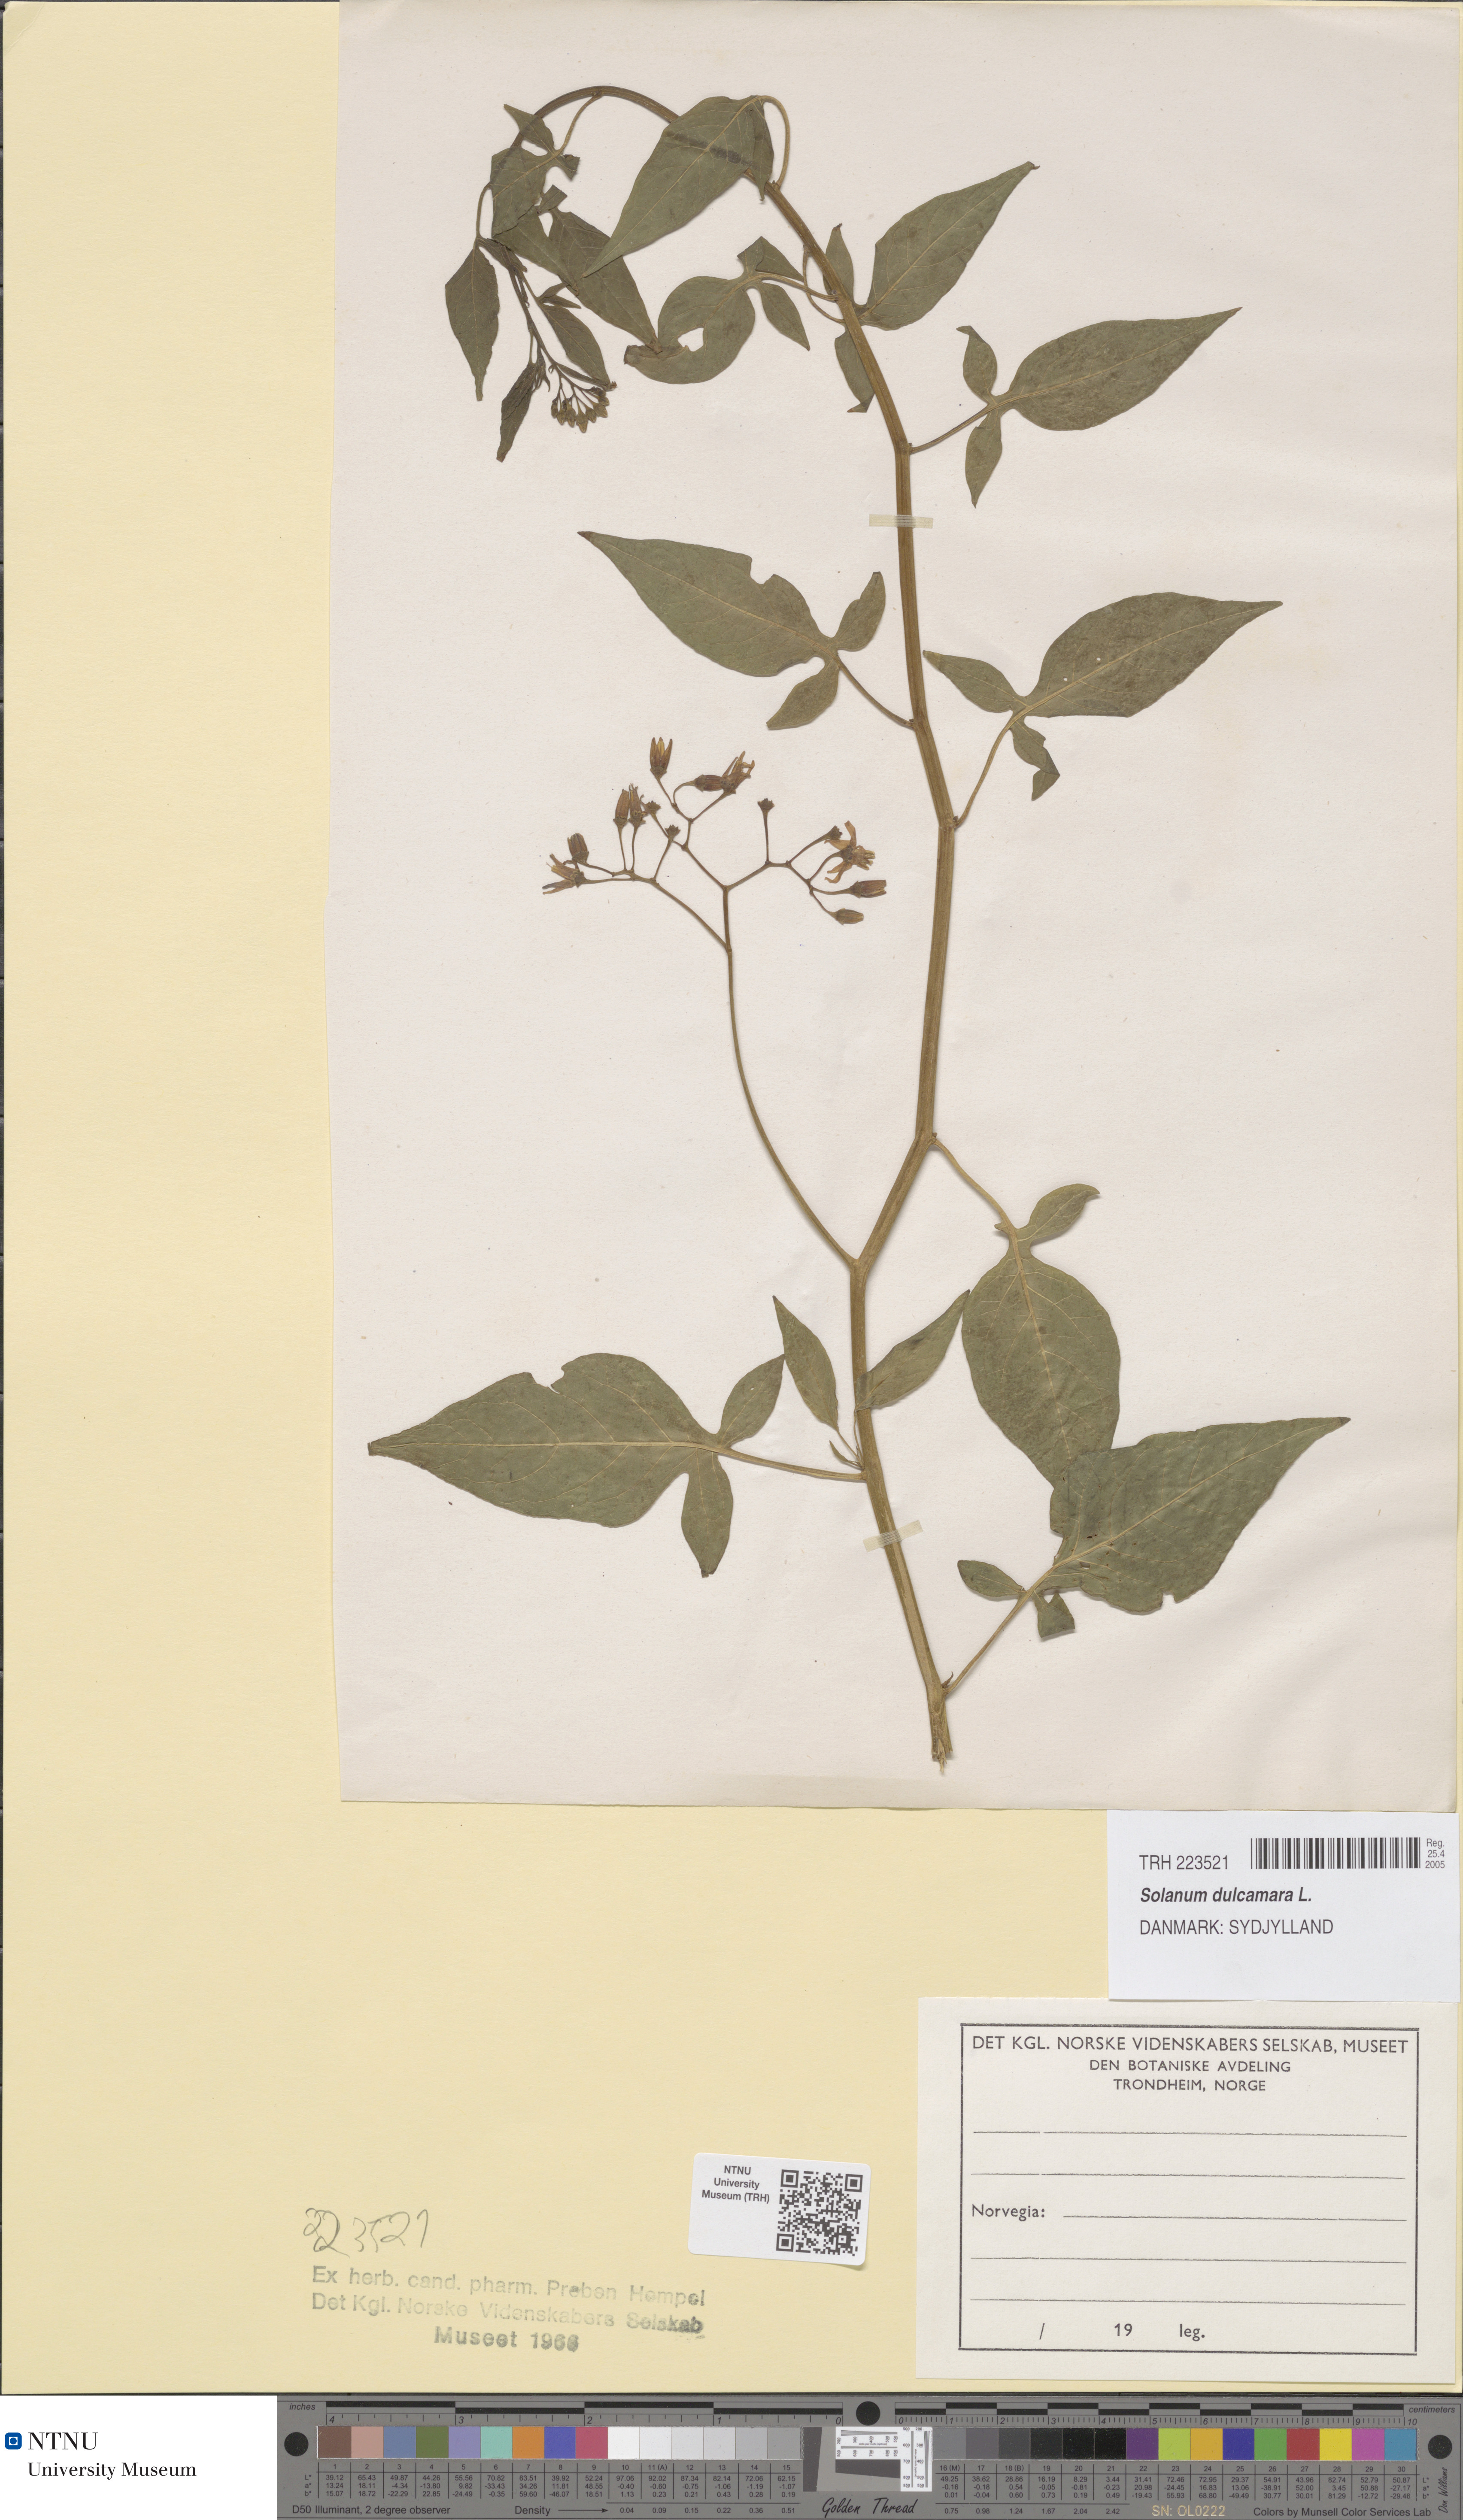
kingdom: Plantae
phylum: Tracheophyta
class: Magnoliopsida
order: Solanales
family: Solanaceae
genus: Solanum
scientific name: Solanum dulcamara
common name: Climbing nightshade
